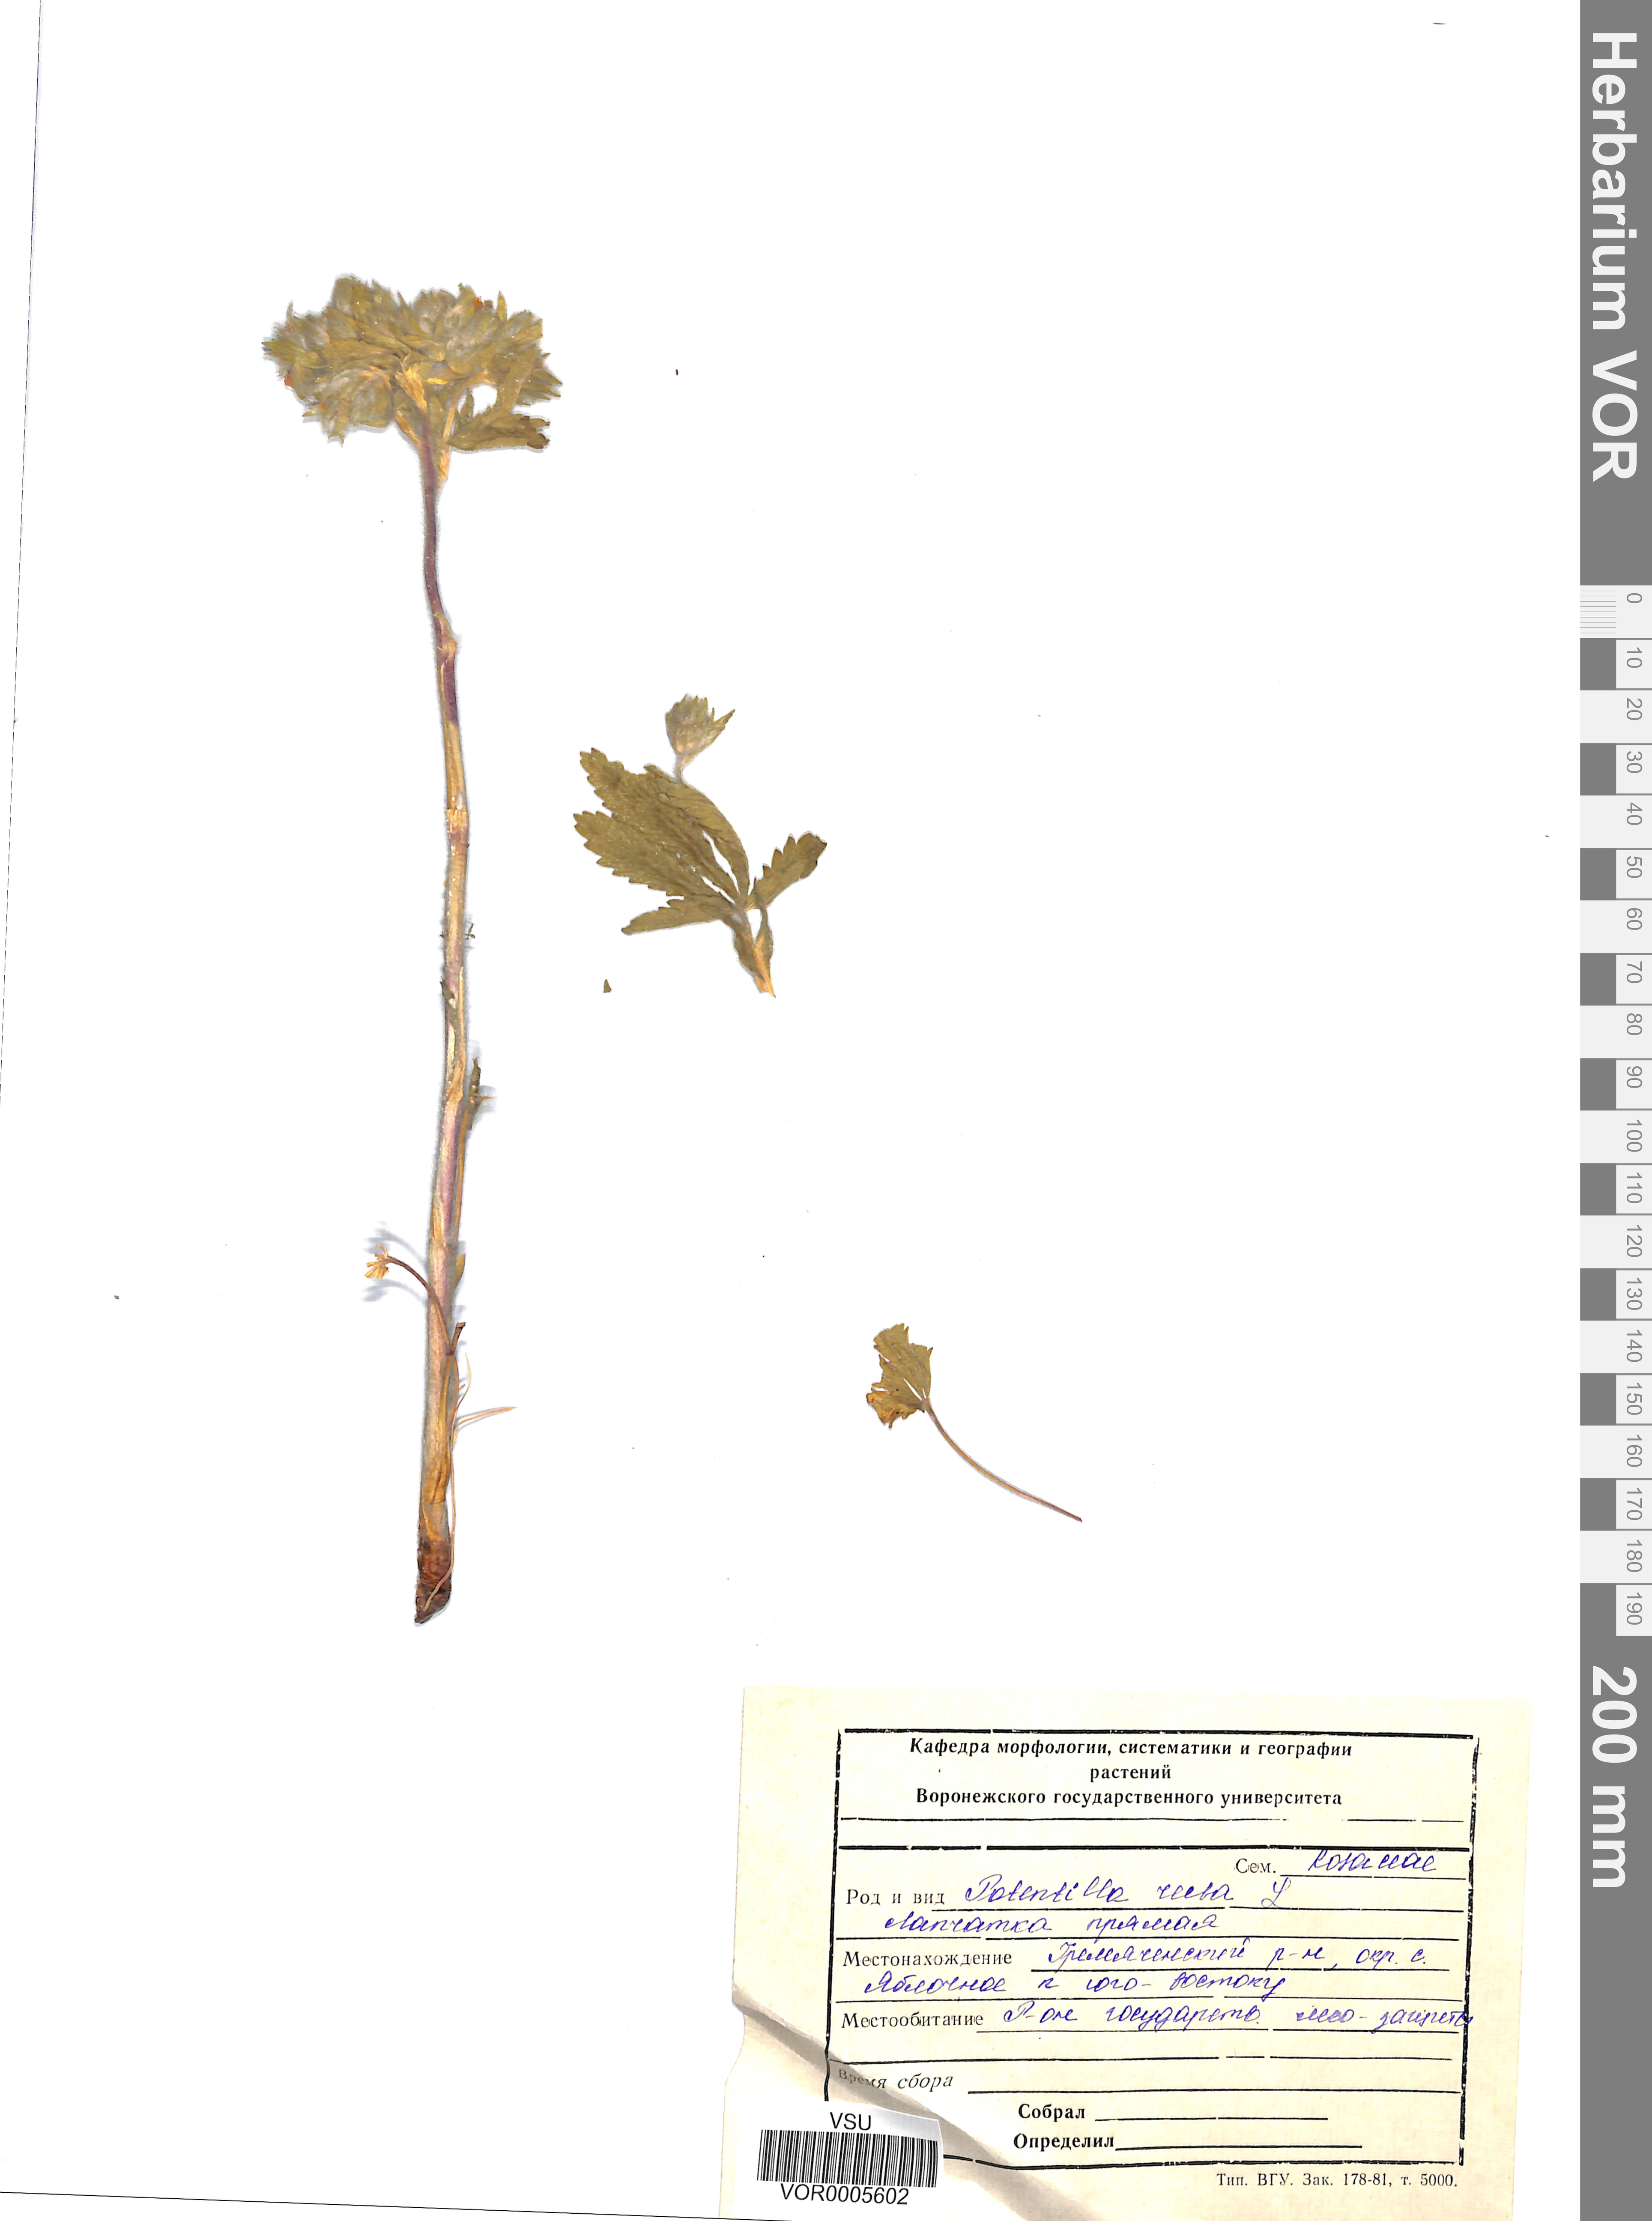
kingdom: Plantae
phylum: Tracheophyta
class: Magnoliopsida
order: Rosales
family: Rosaceae
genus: Potentilla
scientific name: Potentilla recta
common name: Sulphur cinquefoil
